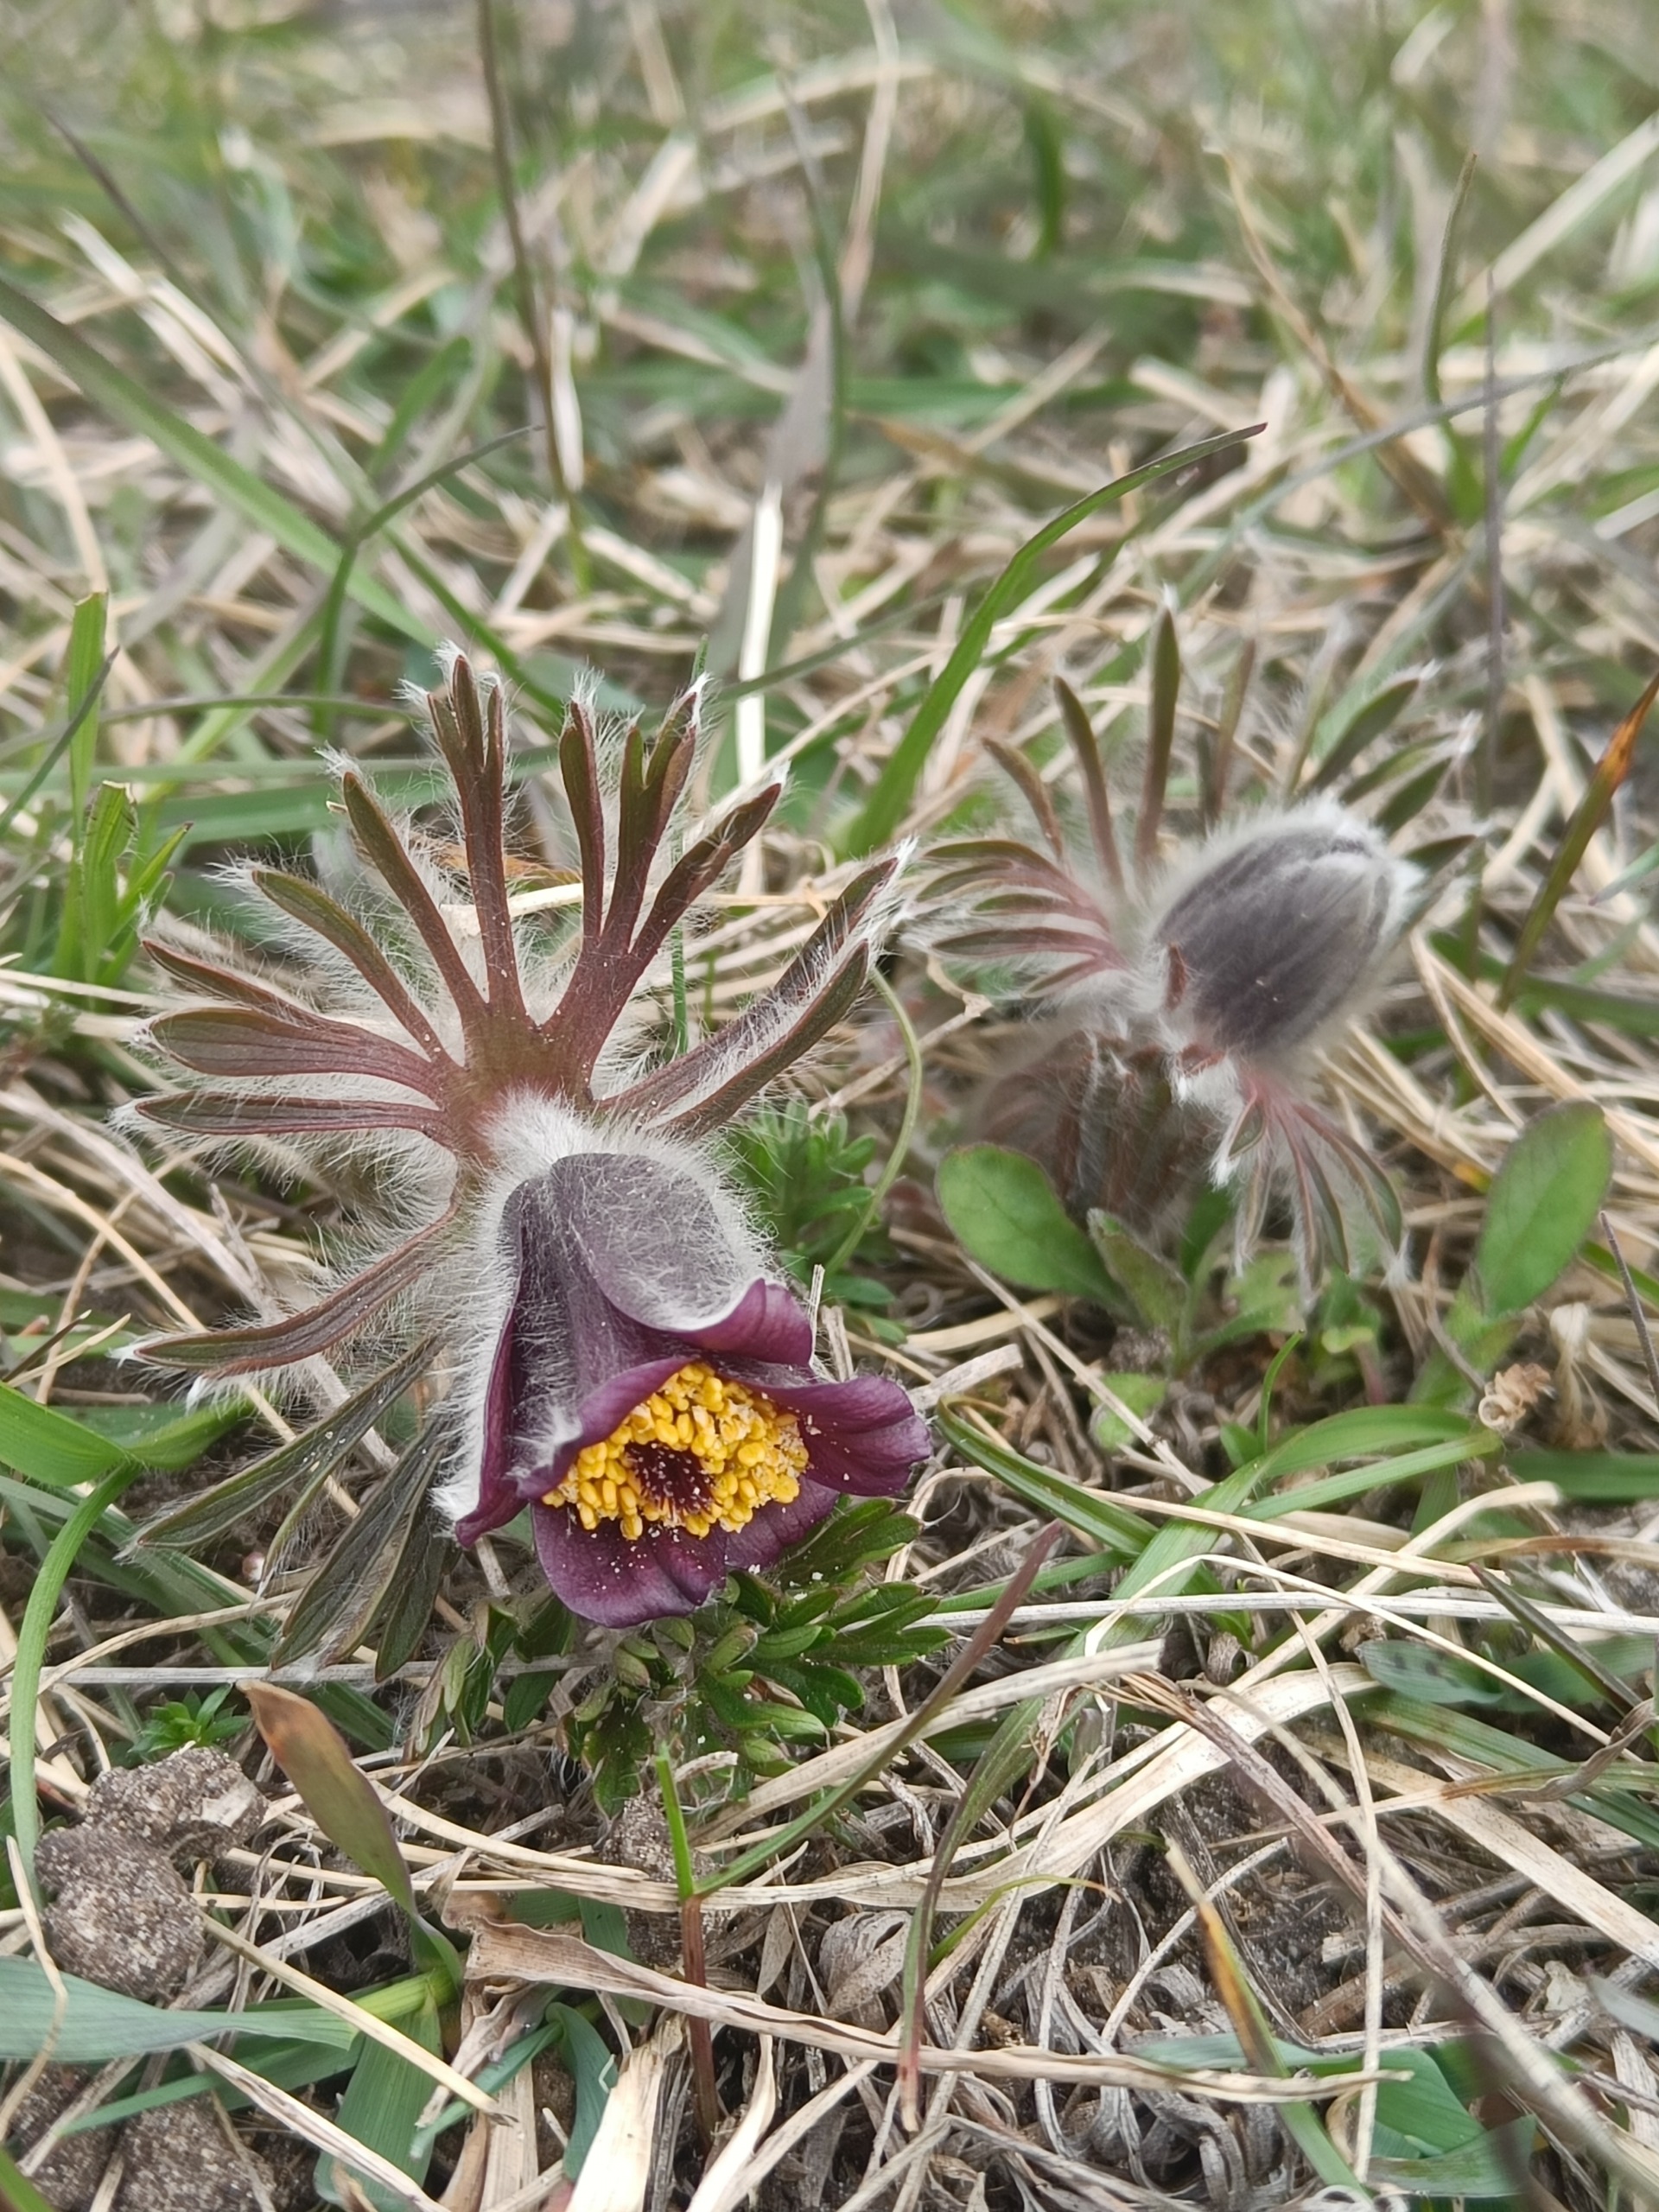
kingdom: Plantae
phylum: Tracheophyta
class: Magnoliopsida
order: Ranunculales
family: Ranunculaceae
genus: Pulsatilla
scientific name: Pulsatilla pratensis
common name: Nikkende kobjælde
